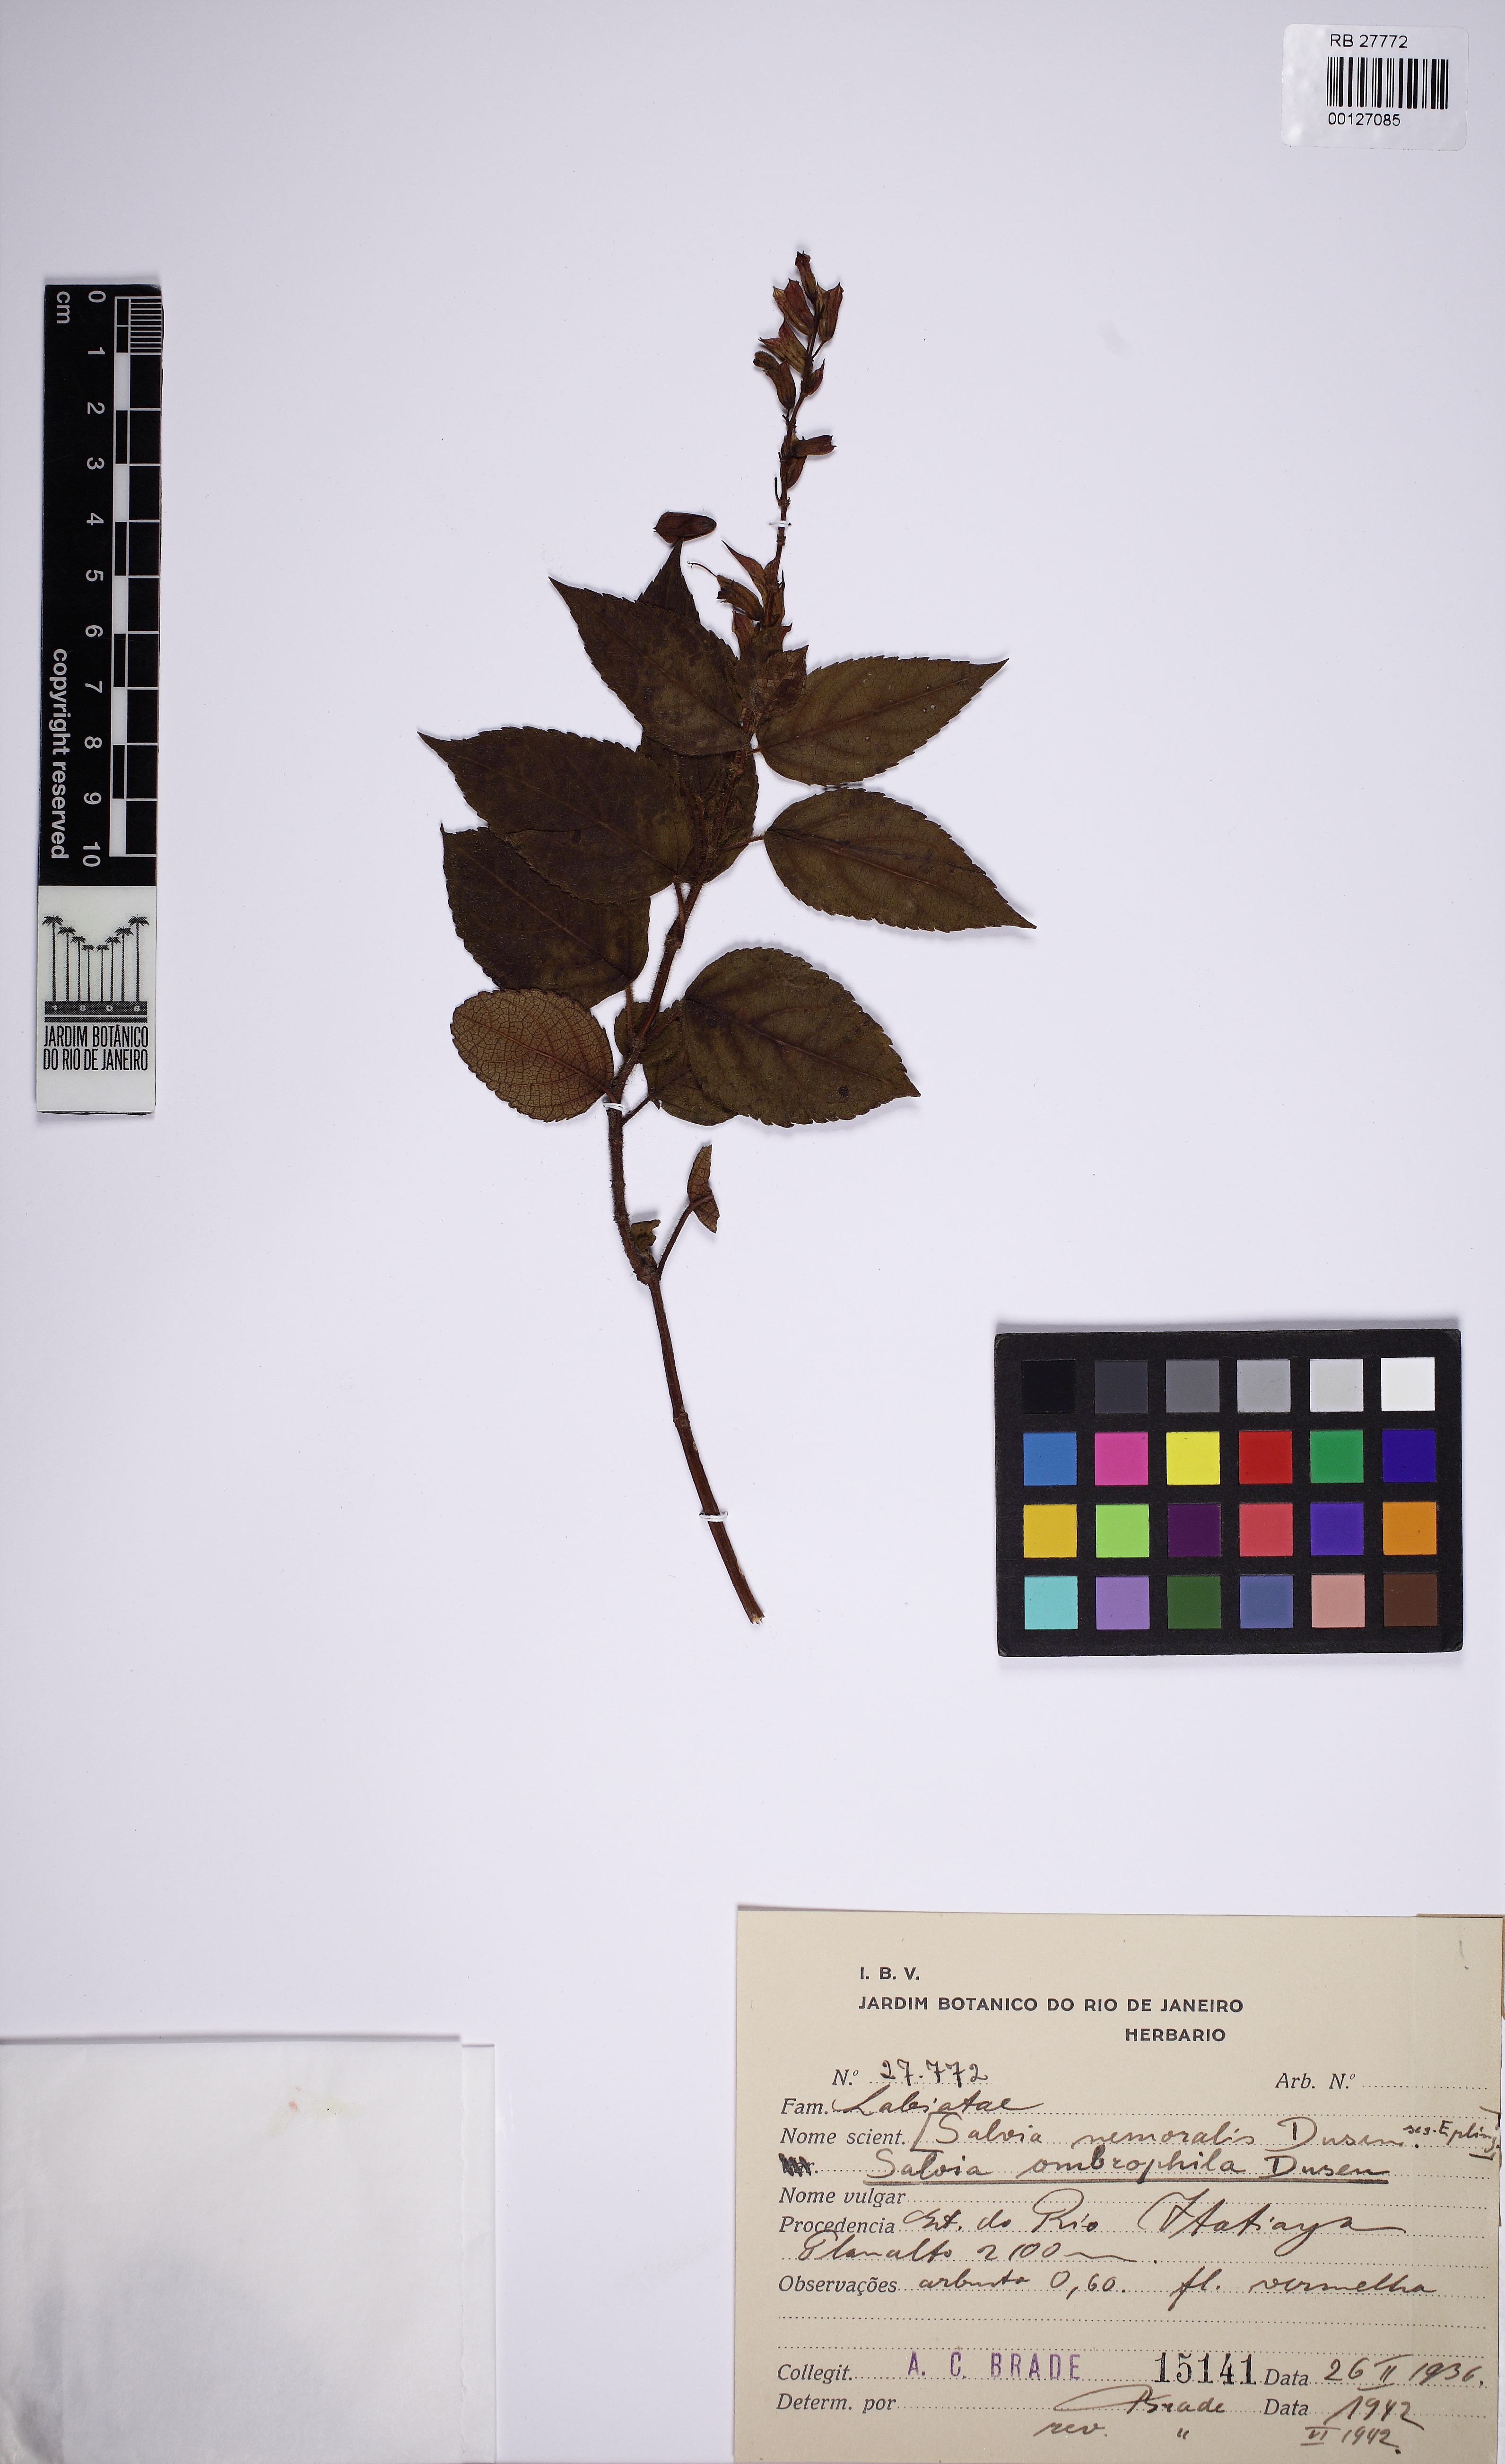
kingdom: Plantae
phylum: Tracheophyta
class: Magnoliopsida
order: Lamiales
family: Lamiaceae
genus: Salvia
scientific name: Salvia ombrophila
